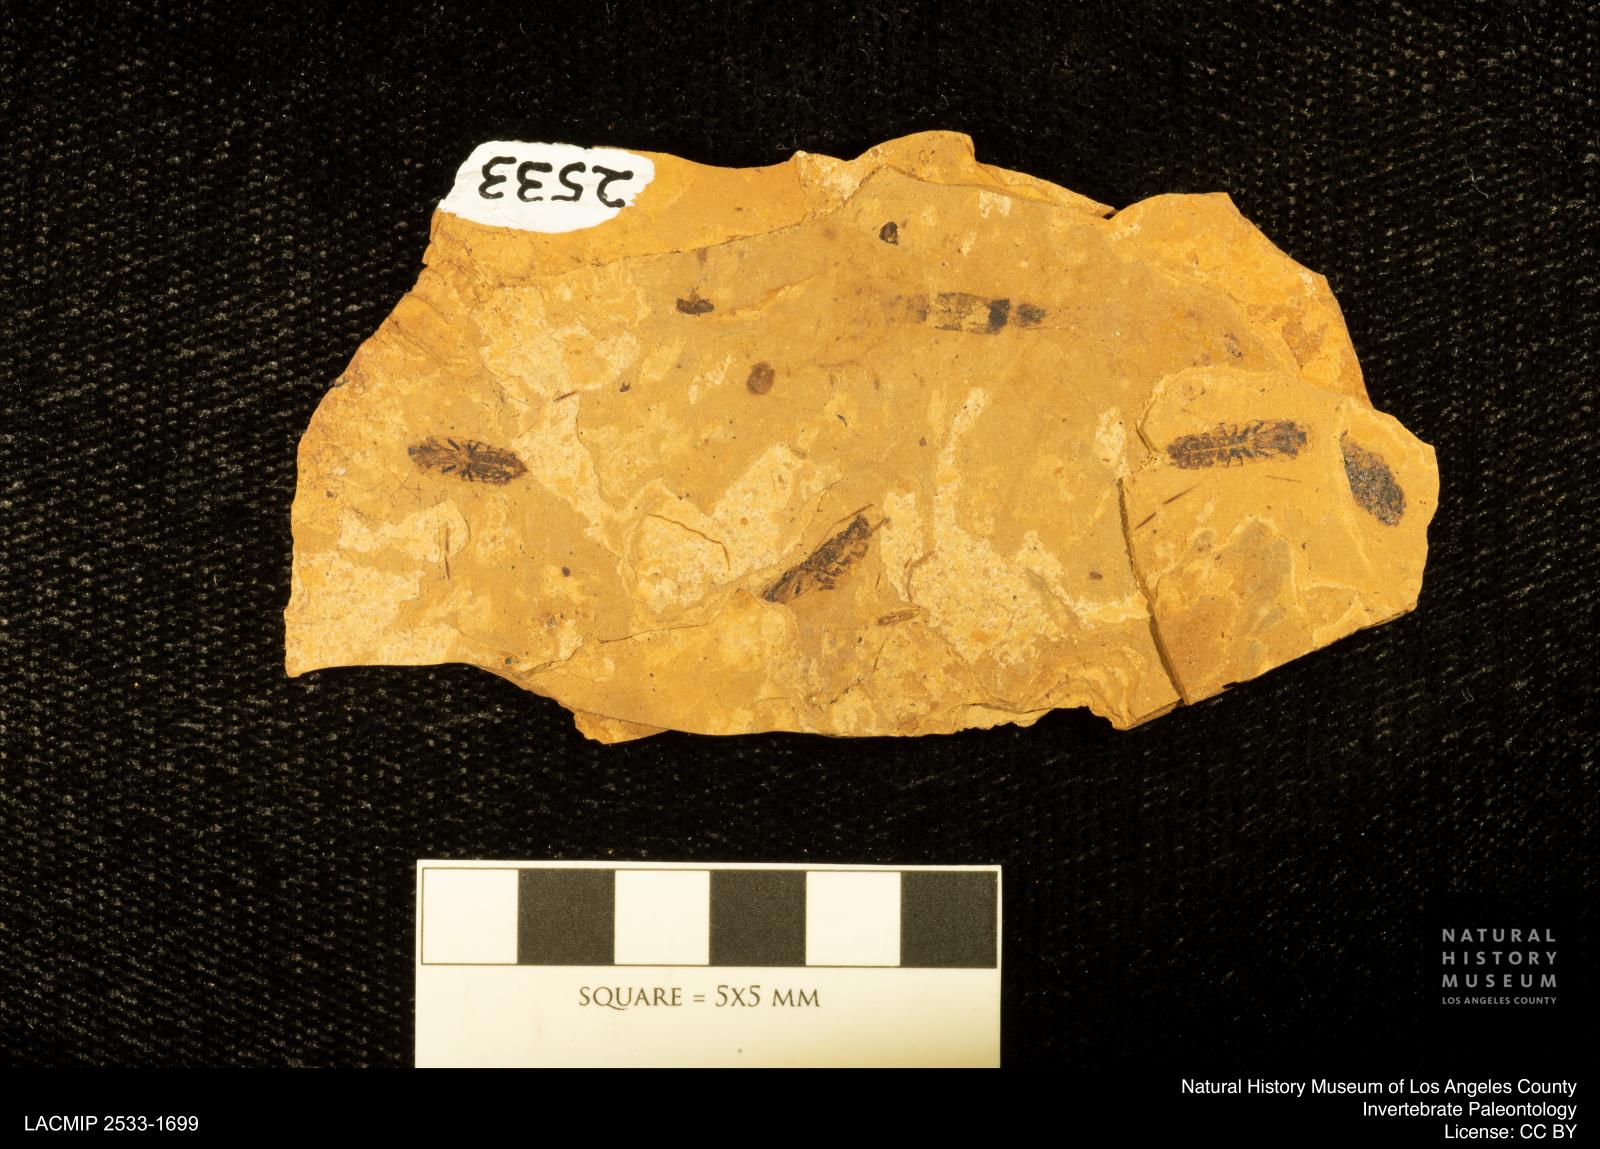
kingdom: Animalia
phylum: Arthropoda
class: Insecta
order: Hemiptera
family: Notonectidae
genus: Notonecta
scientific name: Notonecta
